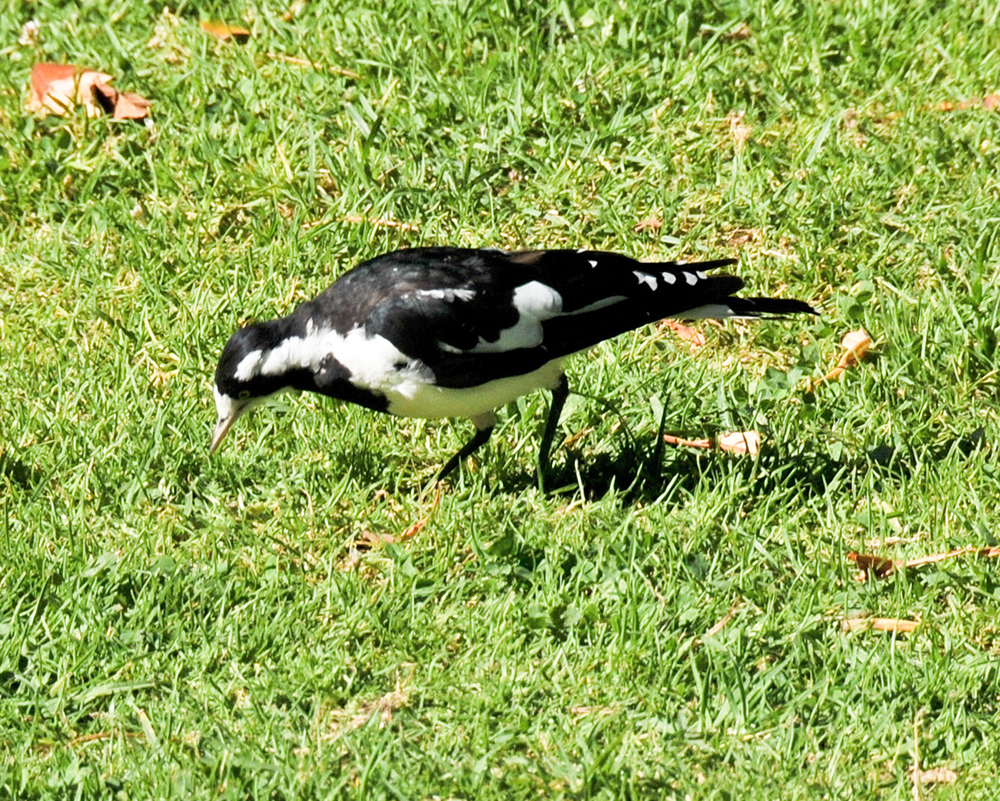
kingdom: Animalia
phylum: Chordata
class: Aves
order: Passeriformes
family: Monarchidae
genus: Grallina
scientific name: Grallina cyanoleuca
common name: Magpie-lark
